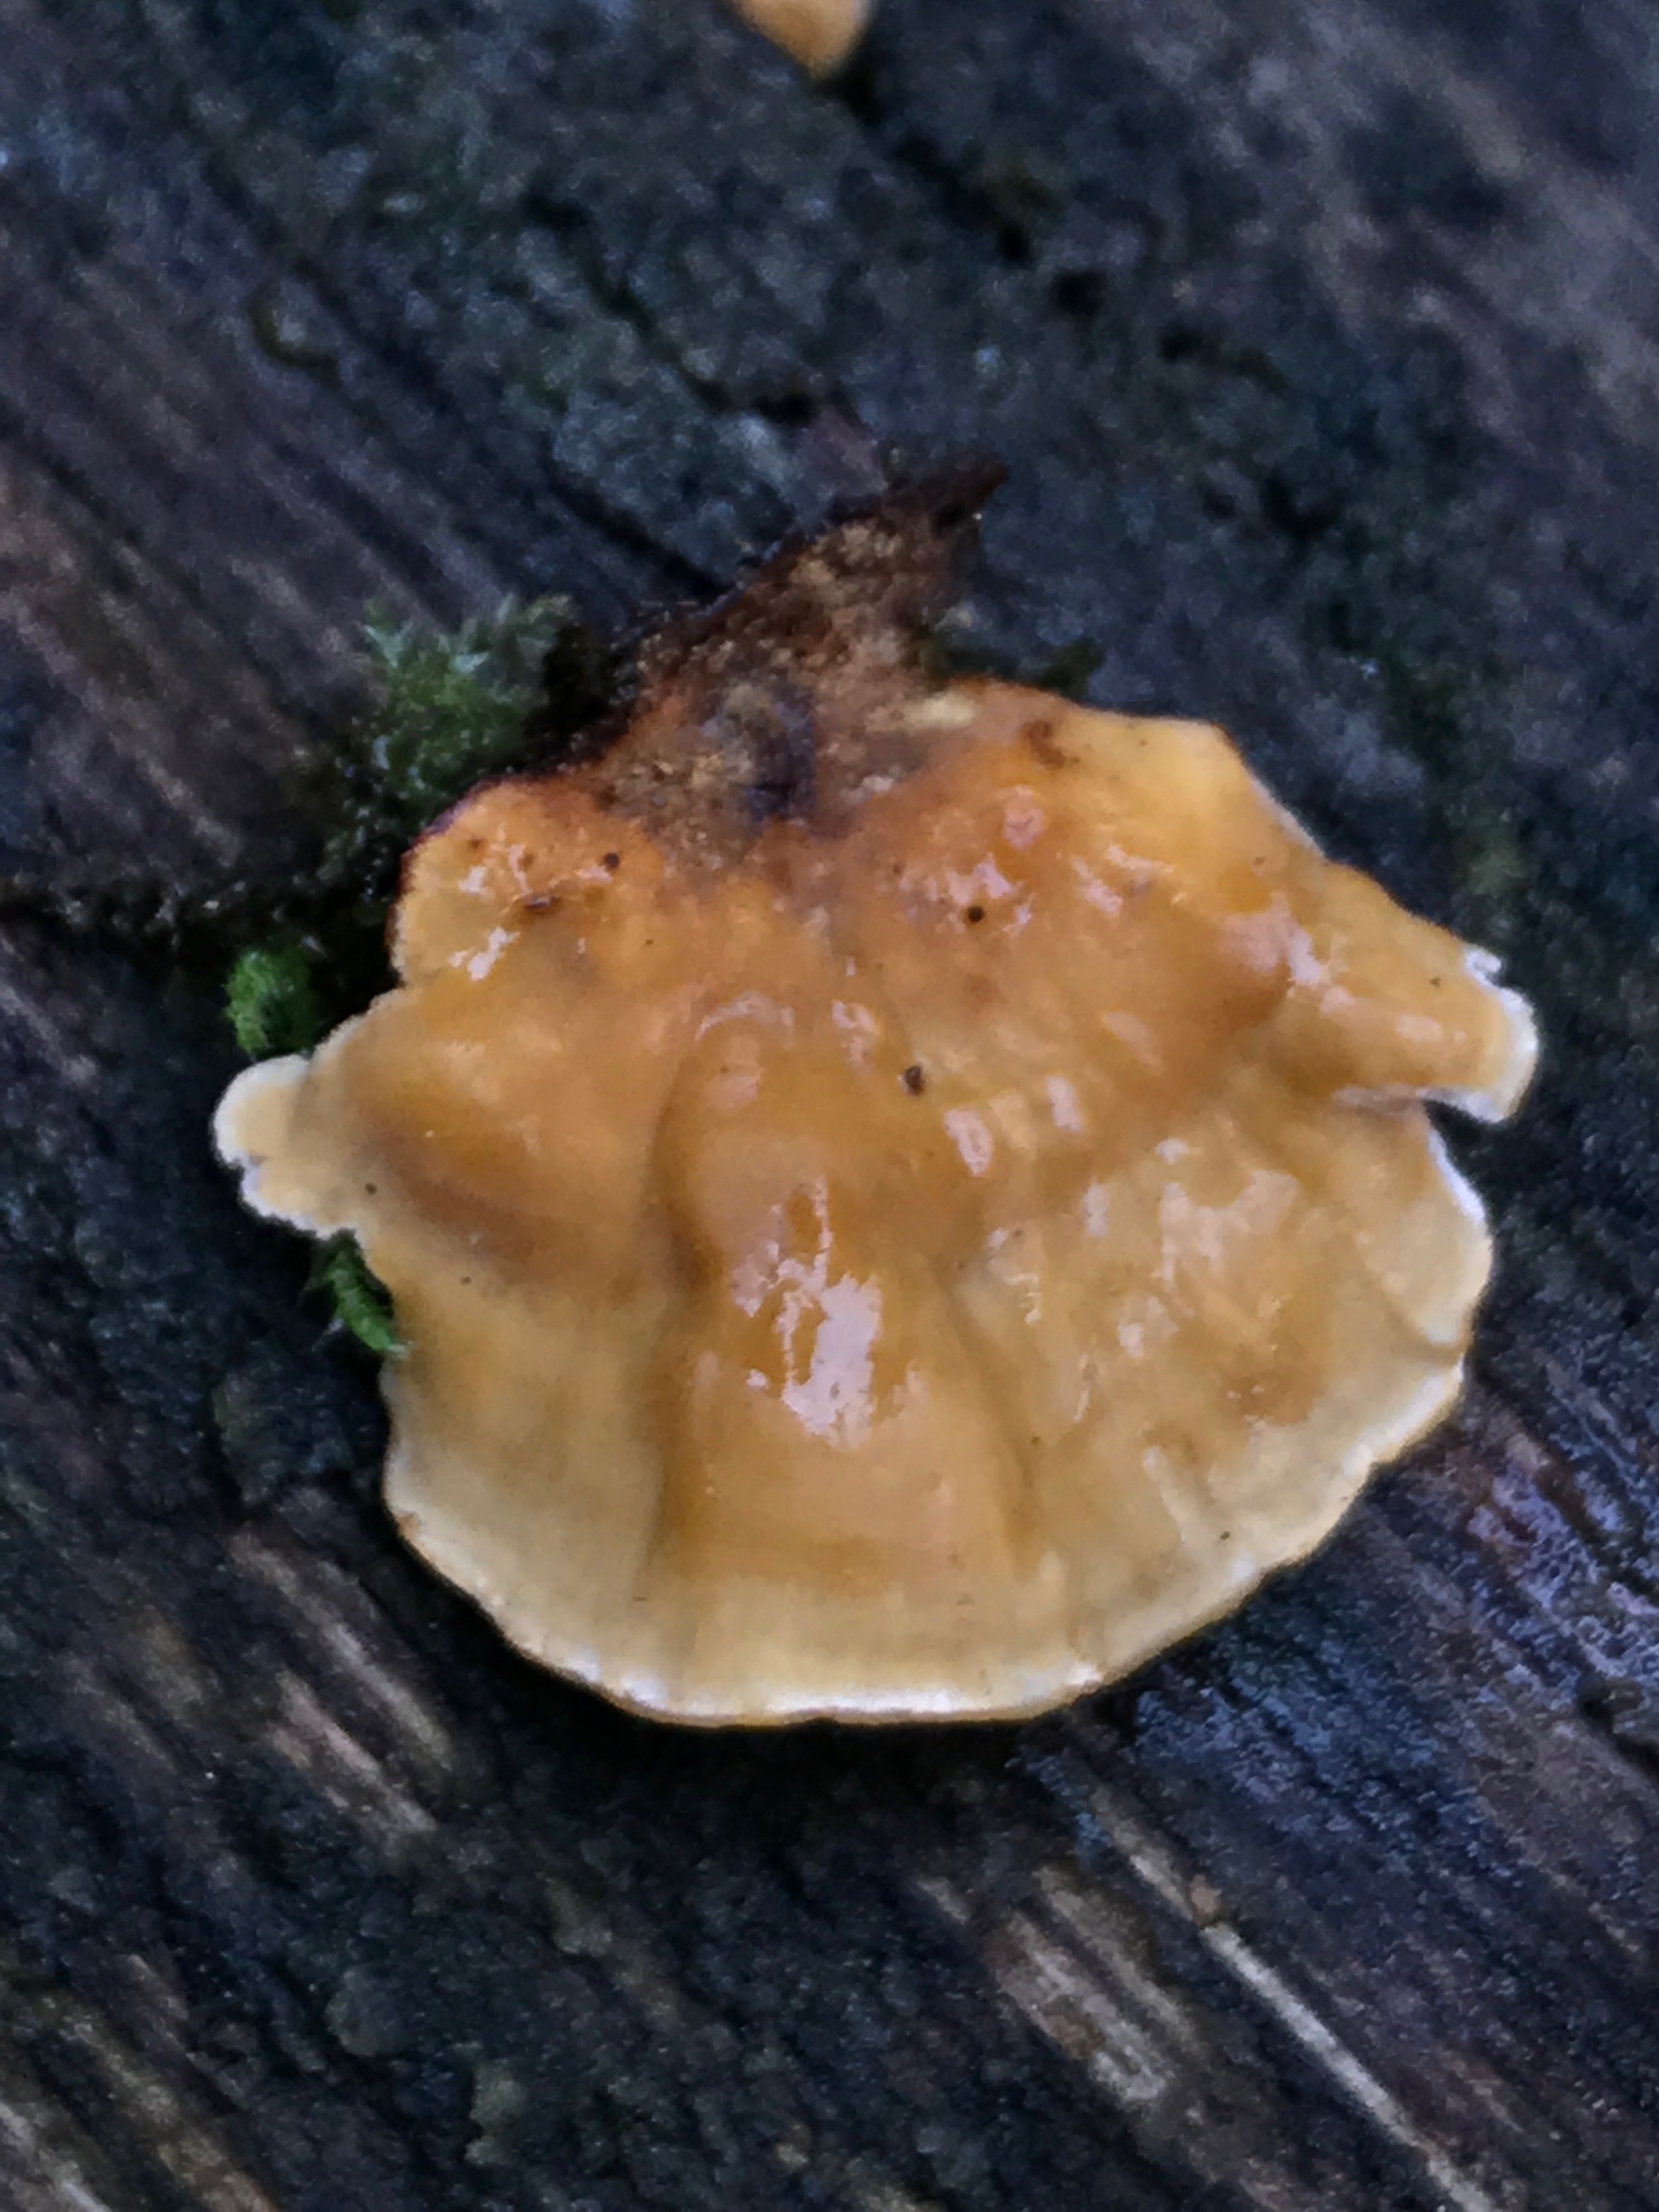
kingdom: Fungi
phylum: Basidiomycota
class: Agaricomycetes
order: Russulales
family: Stereaceae
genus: Stereum
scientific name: Stereum hirsutum
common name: håret lædersvamp
